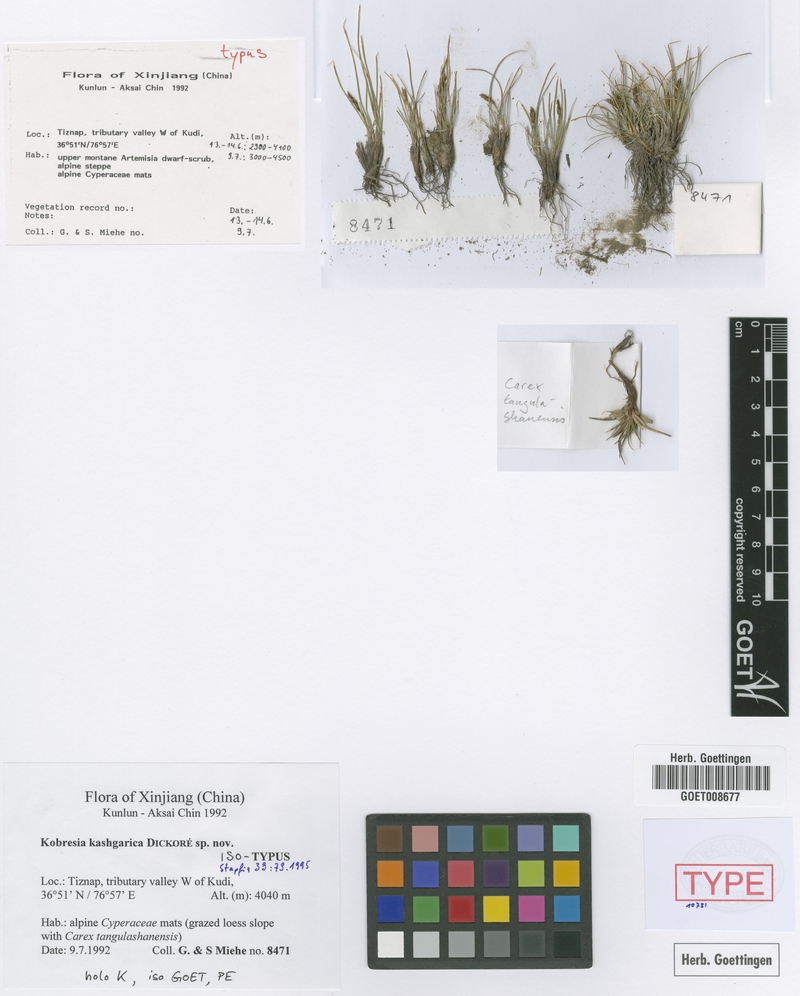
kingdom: Plantae
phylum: Tracheophyta
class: Liliopsida
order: Poales
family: Cyperaceae
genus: Carex
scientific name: Carex capillifolia
